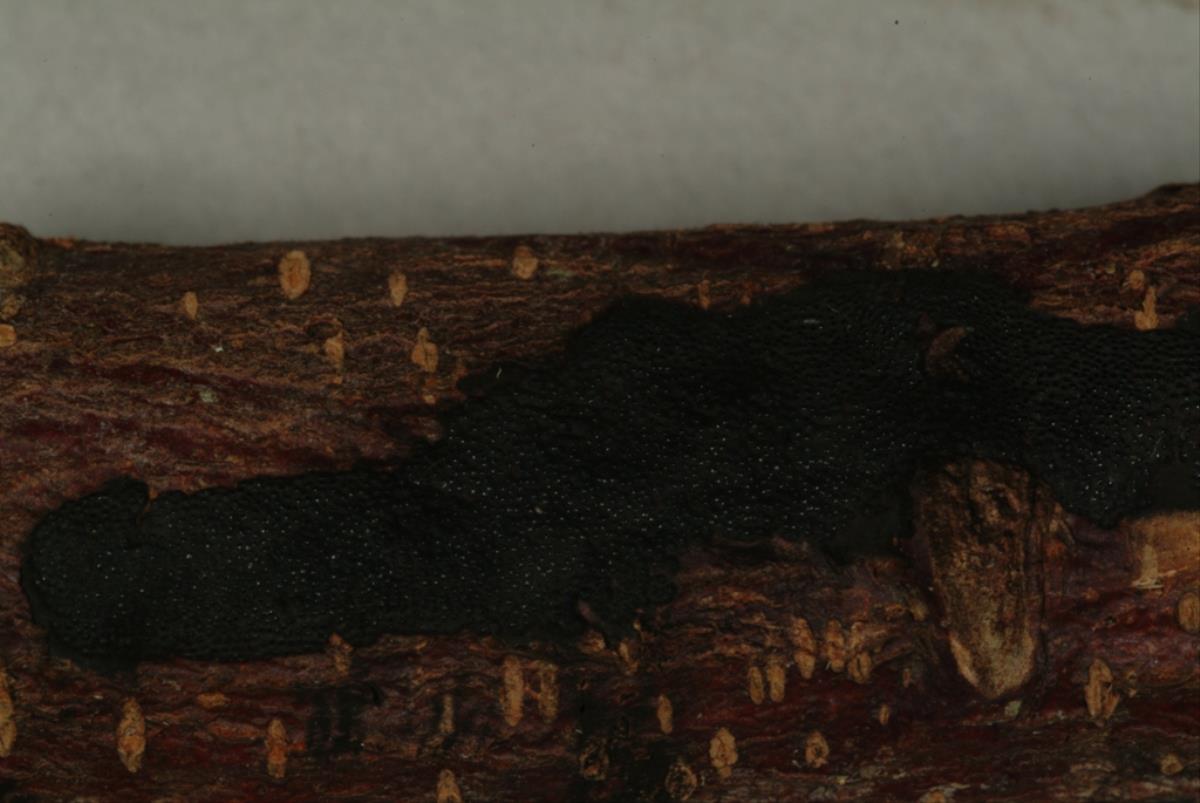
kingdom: Fungi
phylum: Ascomycota
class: Sordariomycetes
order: Xylariales
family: Hypoxylaceae
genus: Annulohypoxylon
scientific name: Annulohypoxylon stygium
